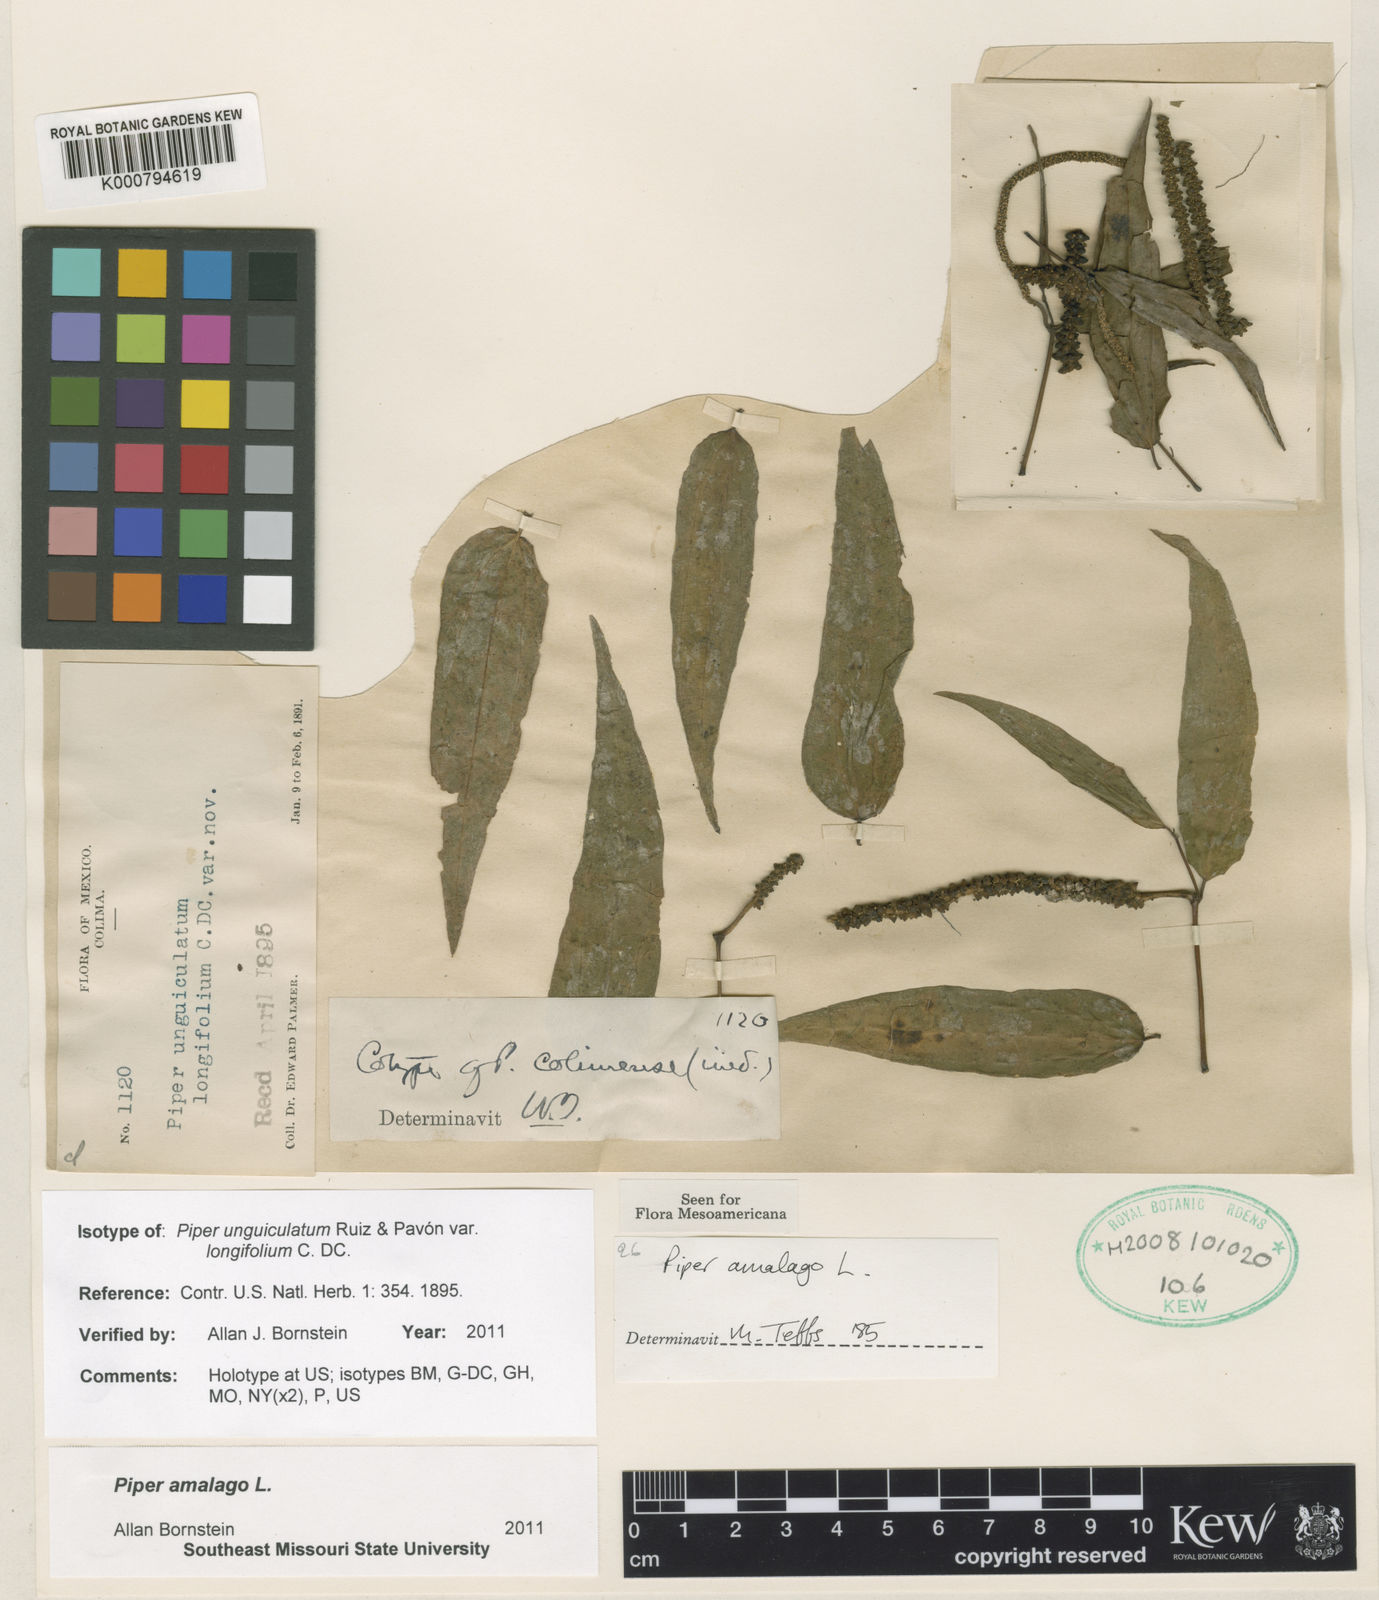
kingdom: Plantae
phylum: Tracheophyta
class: Magnoliopsida
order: Piperales
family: Piperaceae
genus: Piper
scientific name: Piper amalago
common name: Pepper-elder
